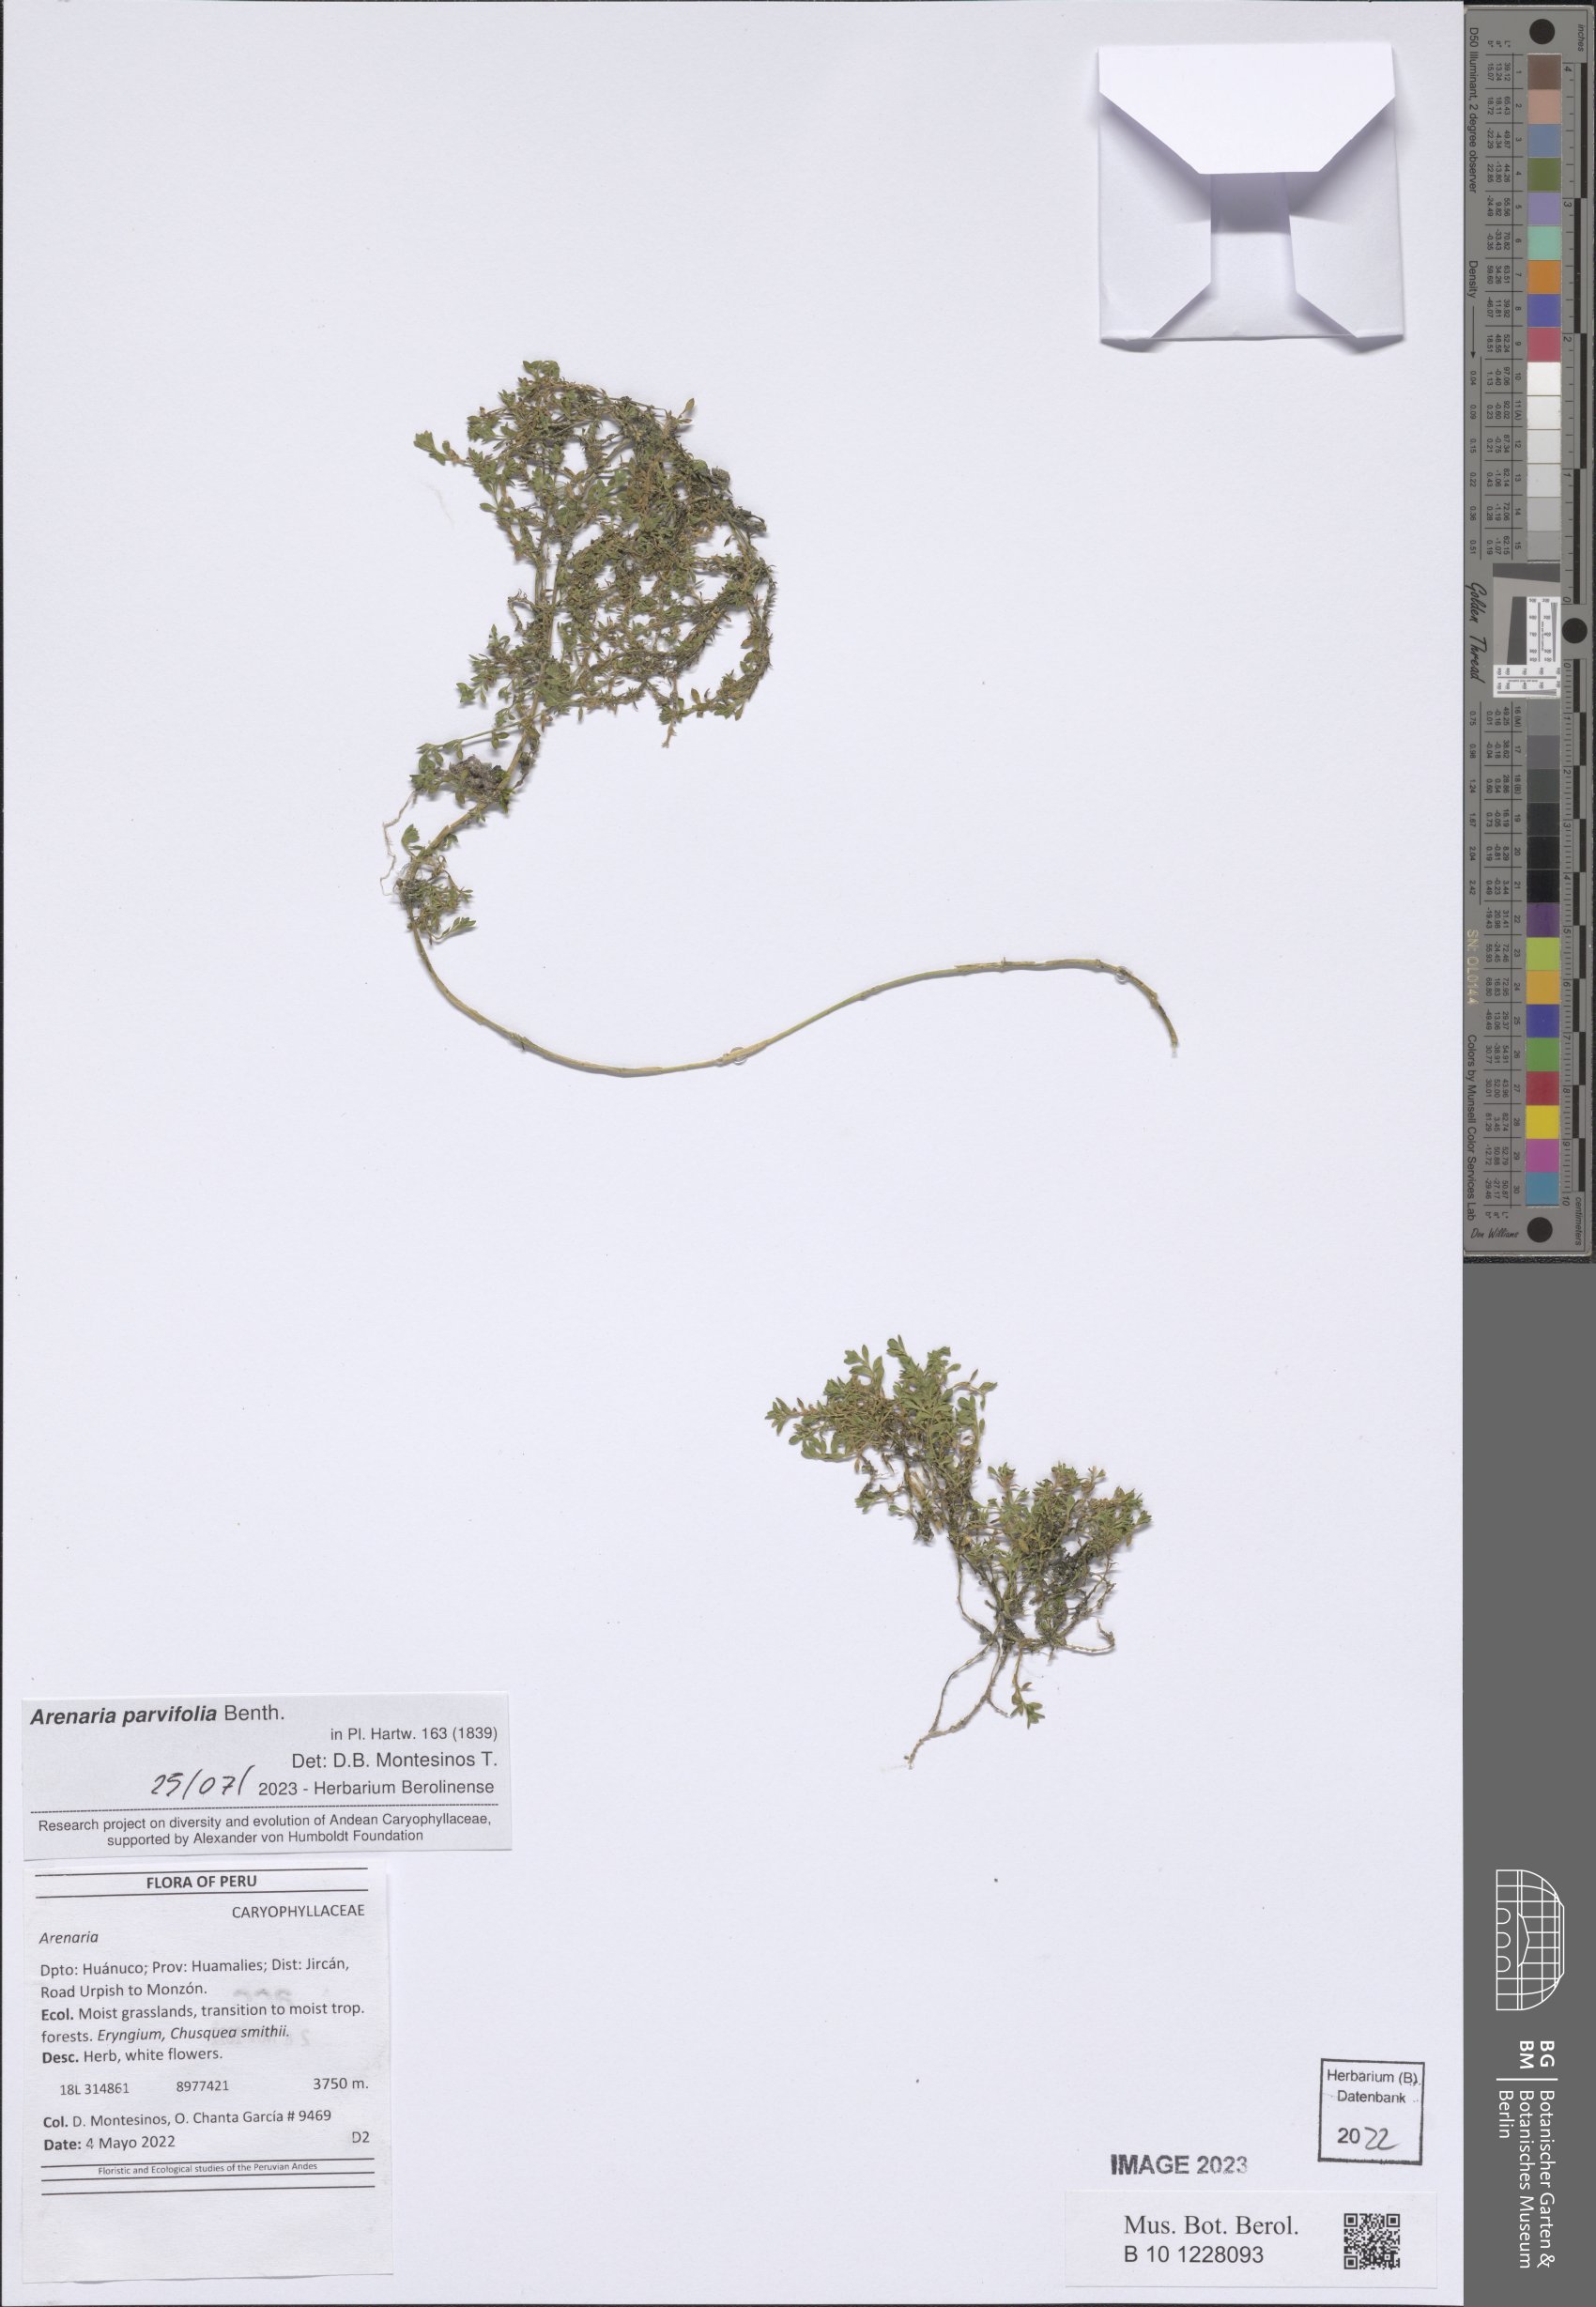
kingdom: Plantae
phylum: Tracheophyta
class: Magnoliopsida
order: Caryophyllales
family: Caryophyllaceae
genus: Arenaria
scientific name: Arenaria
